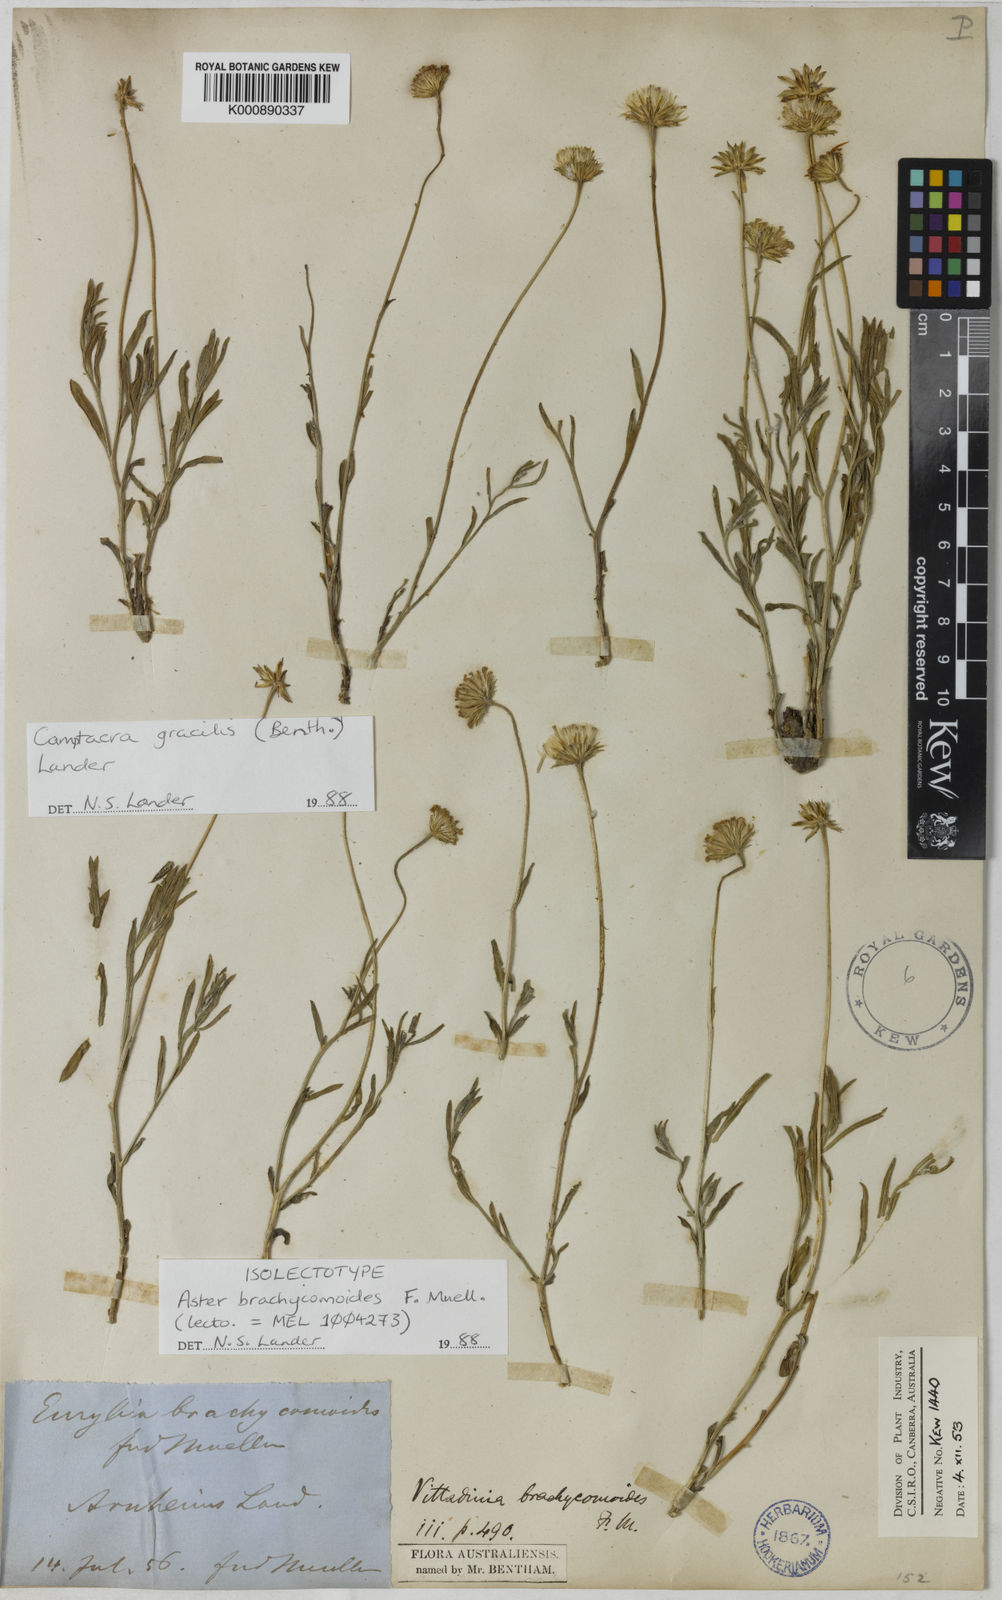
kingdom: Plantae
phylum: Tracheophyta
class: Magnoliopsida
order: Asterales
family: Asteraceae
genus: Camptacra
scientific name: Camptacra gracilis
